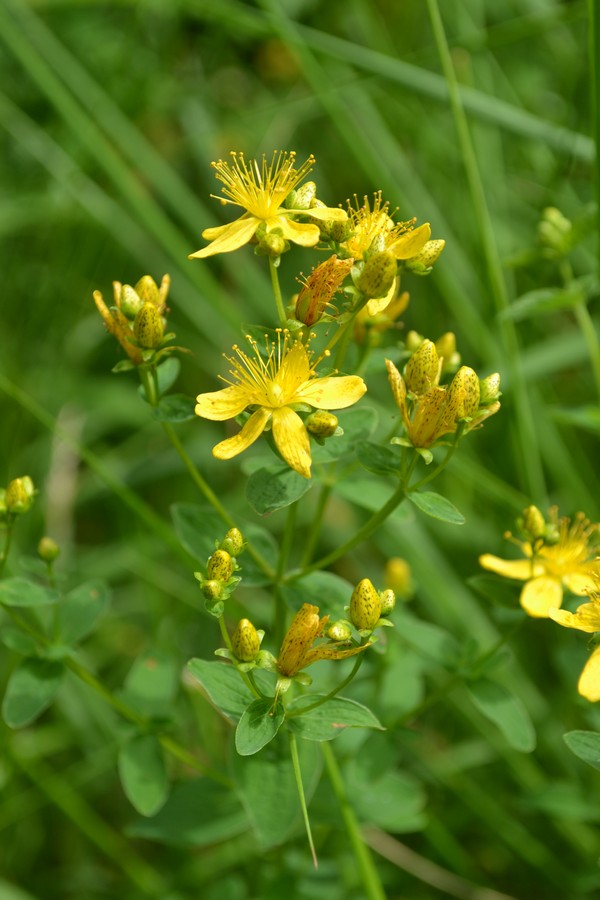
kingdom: Plantae
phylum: Tracheophyta
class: Magnoliopsida
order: Malpighiales
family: Hypericaceae
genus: Hypericum
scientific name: Hypericum perforatum
